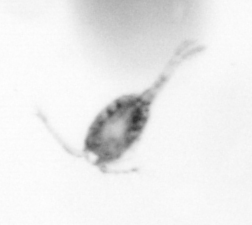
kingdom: Animalia
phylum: Arthropoda
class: Copepoda
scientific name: Copepoda
